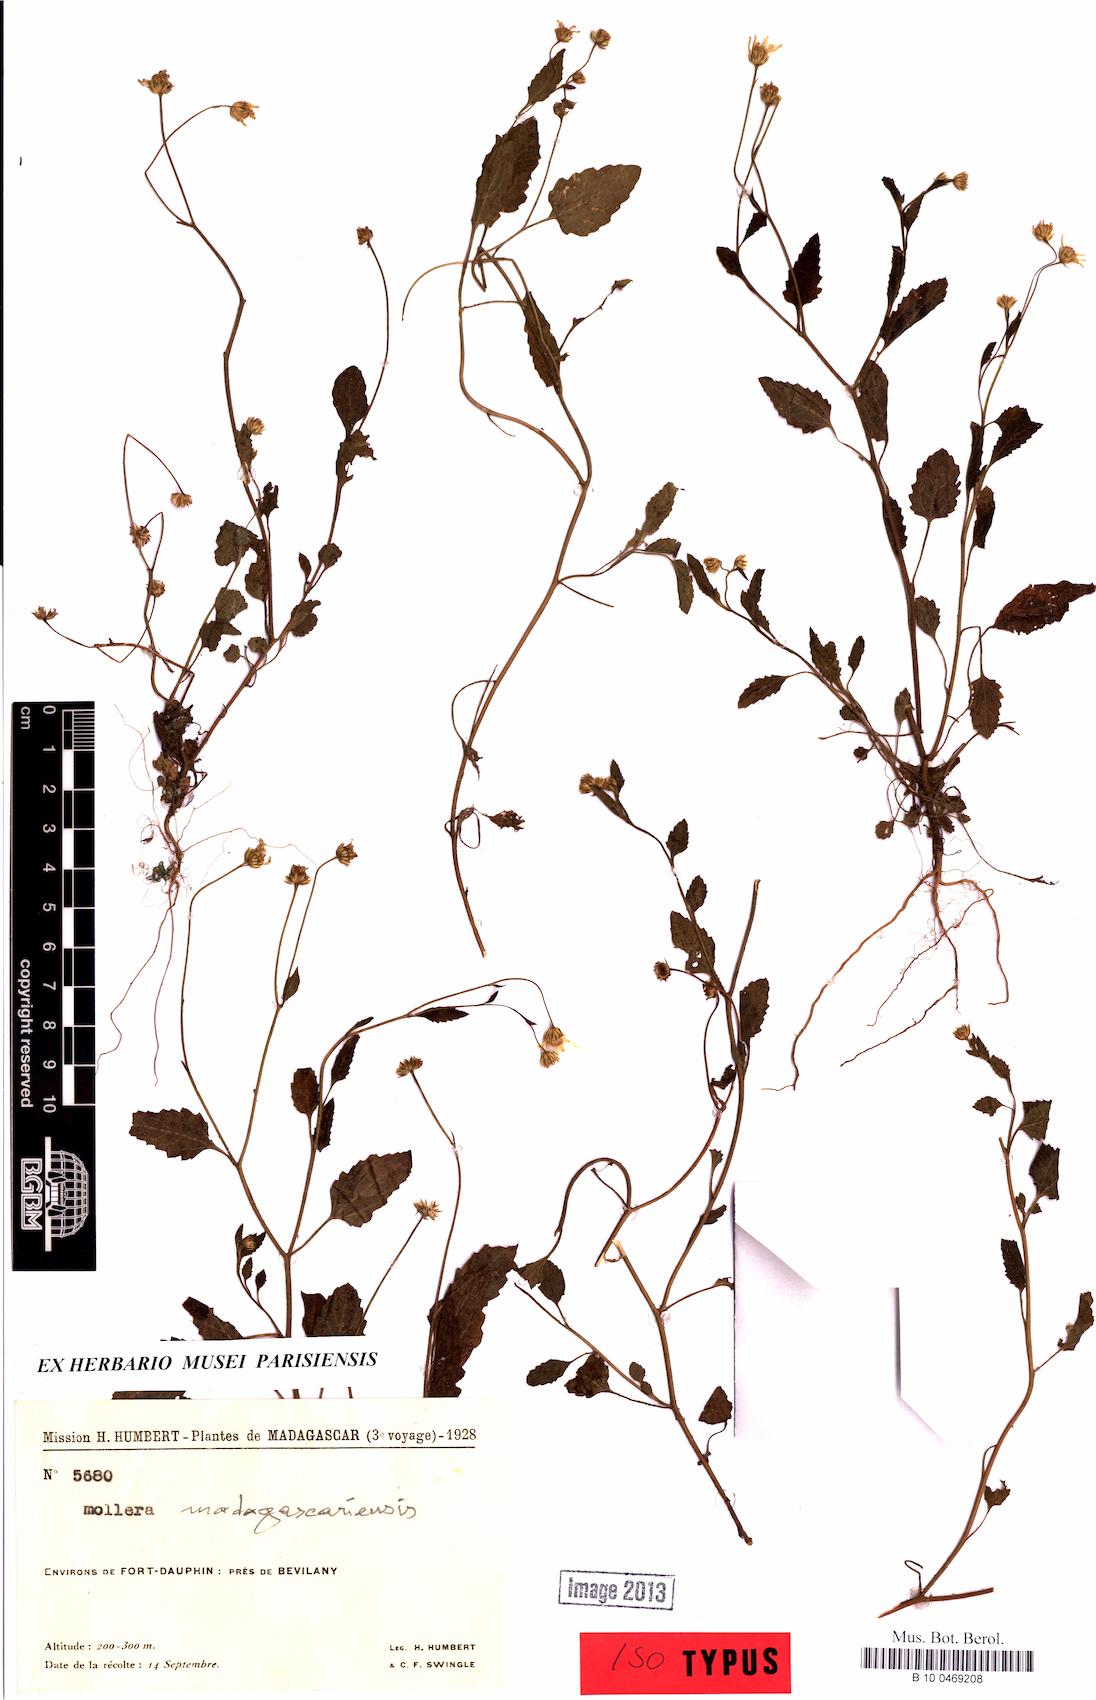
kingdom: Plantae
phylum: Tracheophyta
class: Magnoliopsida
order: Asterales
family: Asteraceae
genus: Calostephane
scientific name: Calostephane madagascariensis
